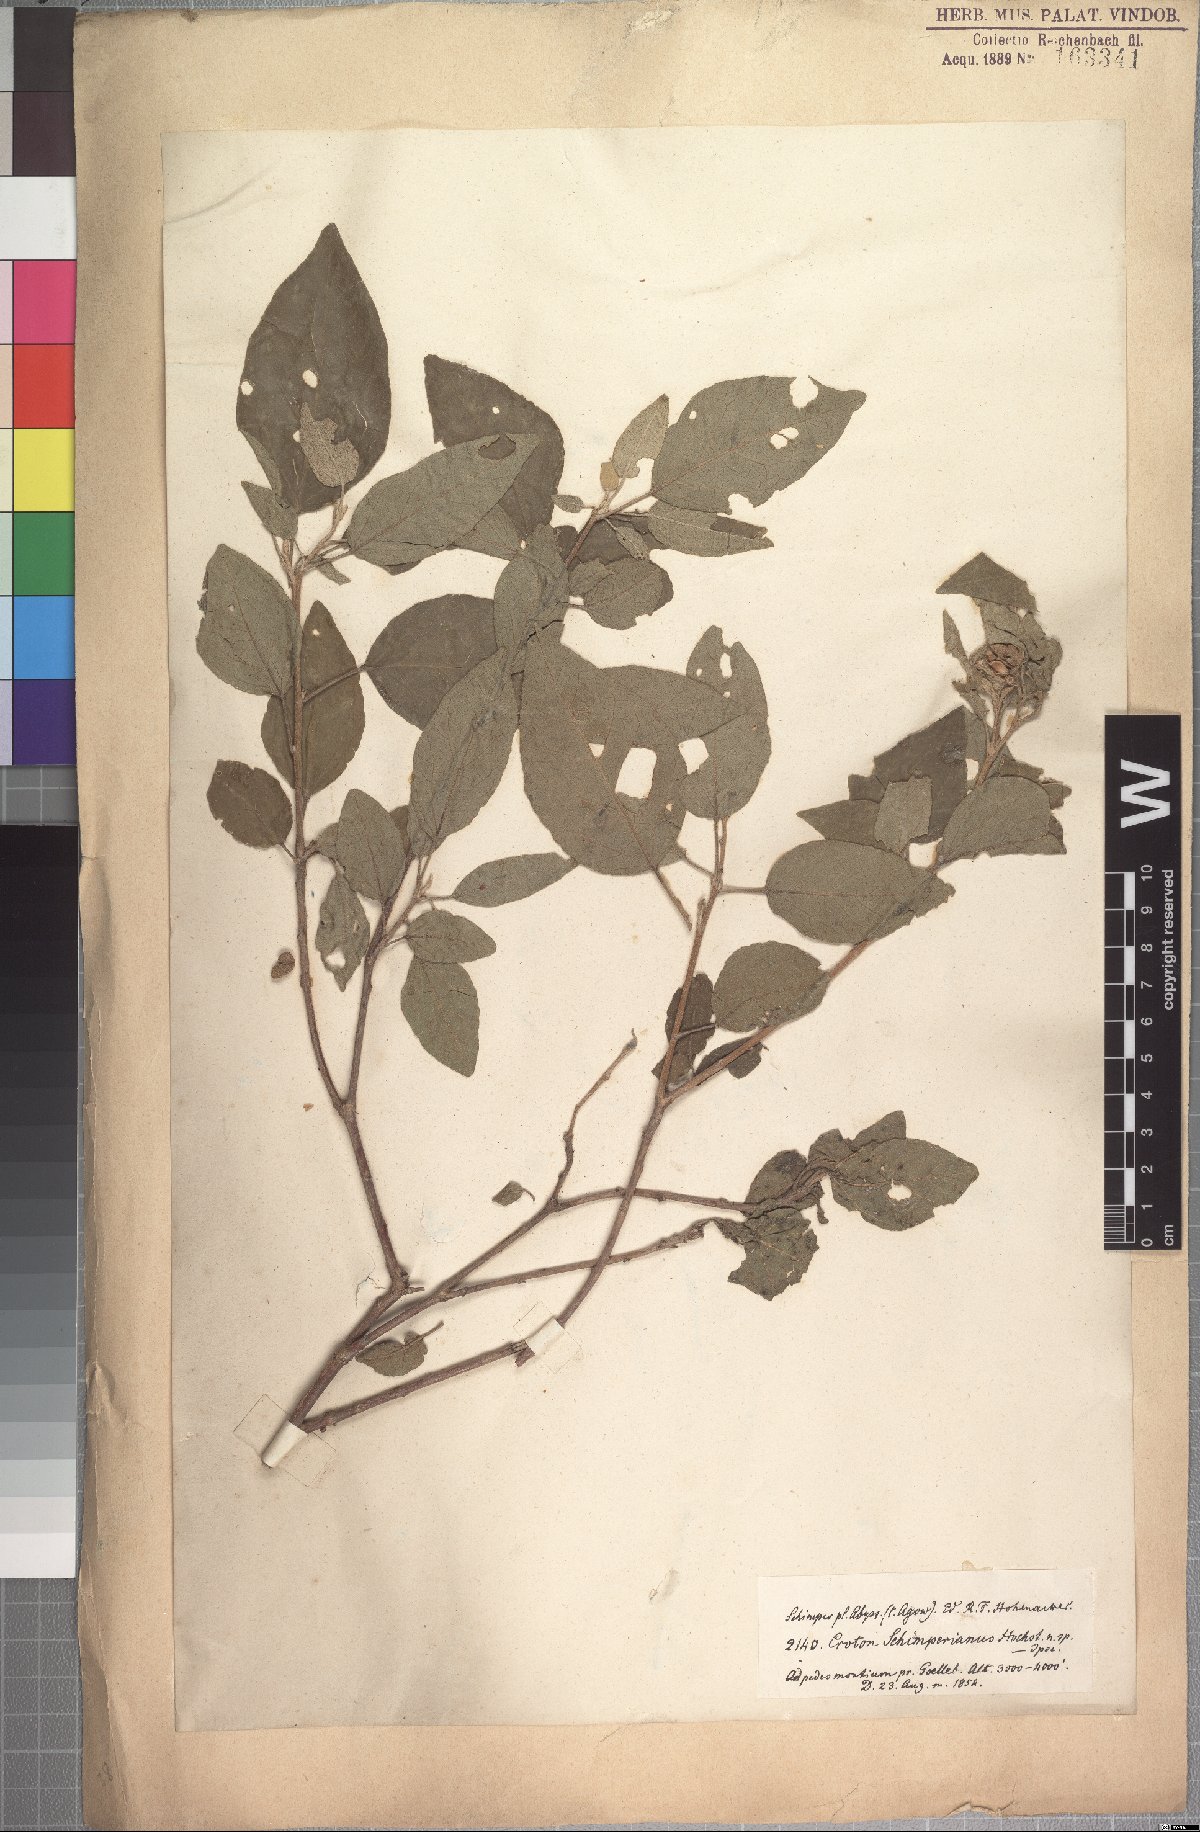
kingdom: Plantae
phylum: Tracheophyta
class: Magnoliopsida
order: Malpighiales
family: Euphorbiaceae
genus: Croton
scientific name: Croton schimperianus
